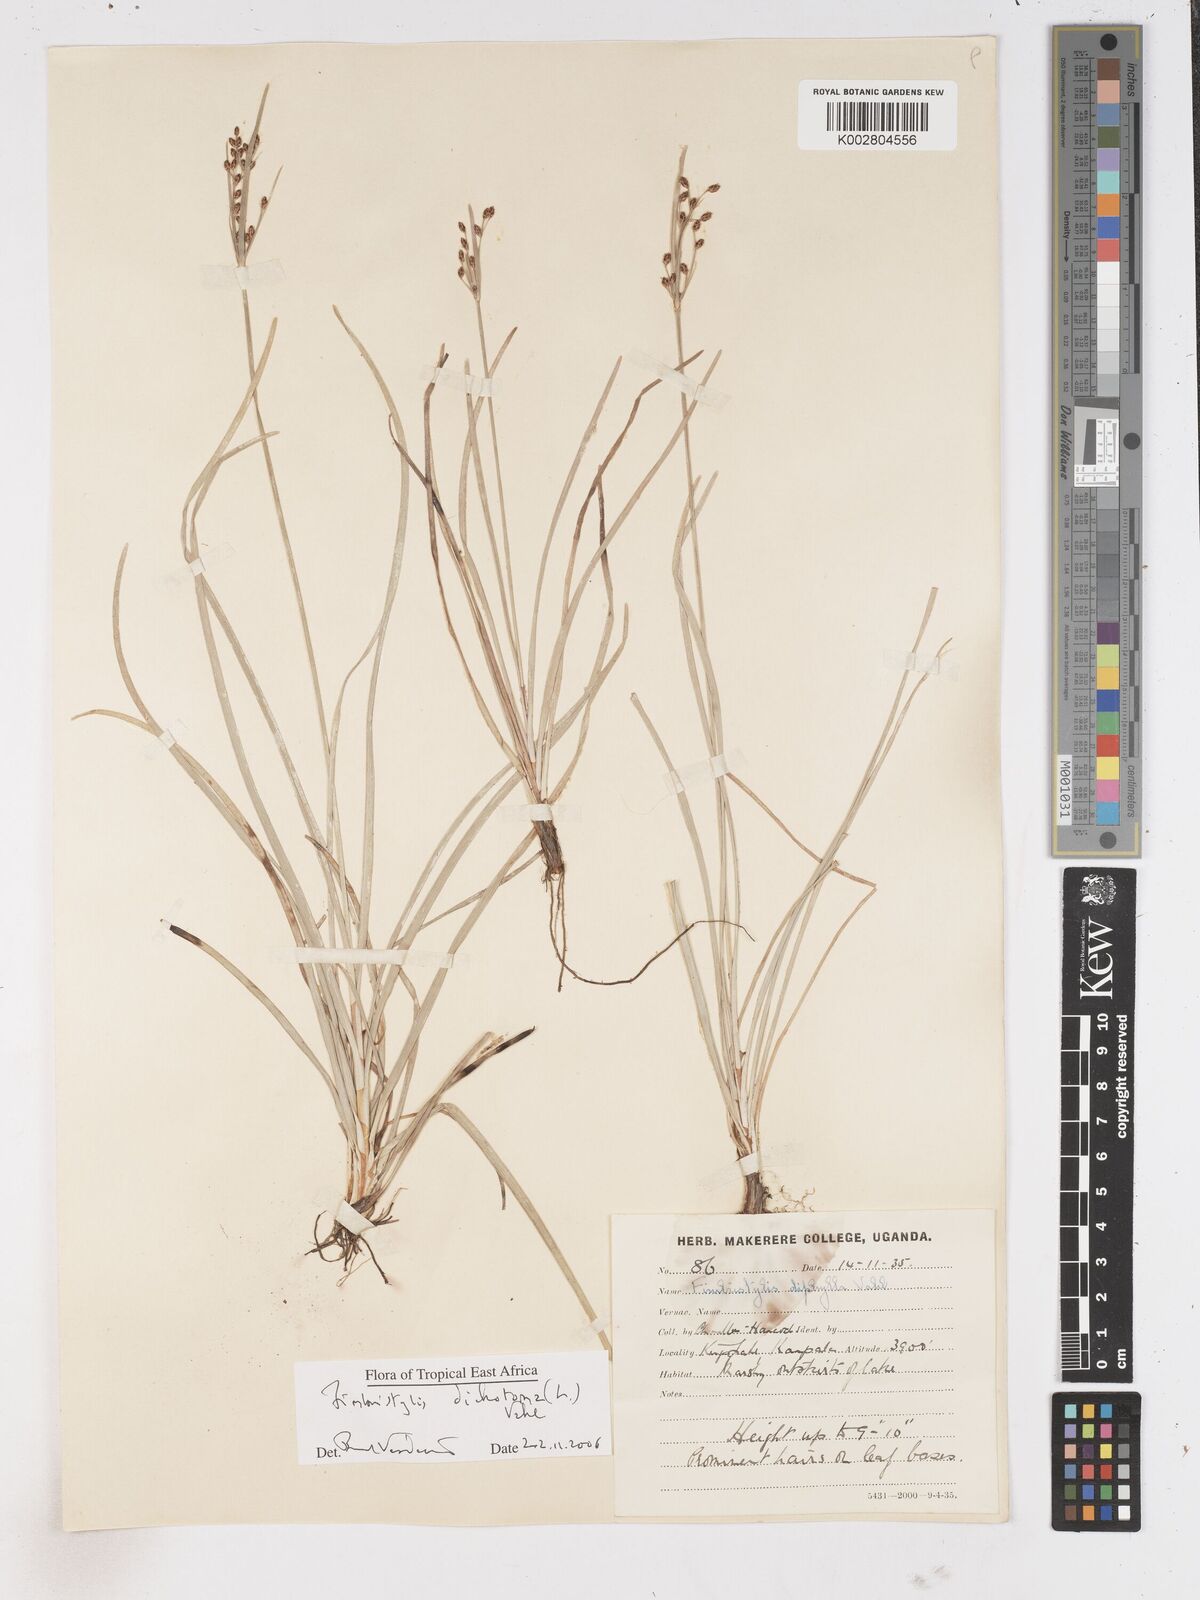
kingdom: Plantae
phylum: Tracheophyta
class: Liliopsida
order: Poales
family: Cyperaceae
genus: Fimbristylis
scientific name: Fimbristylis dichotoma
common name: Forked fimbry
